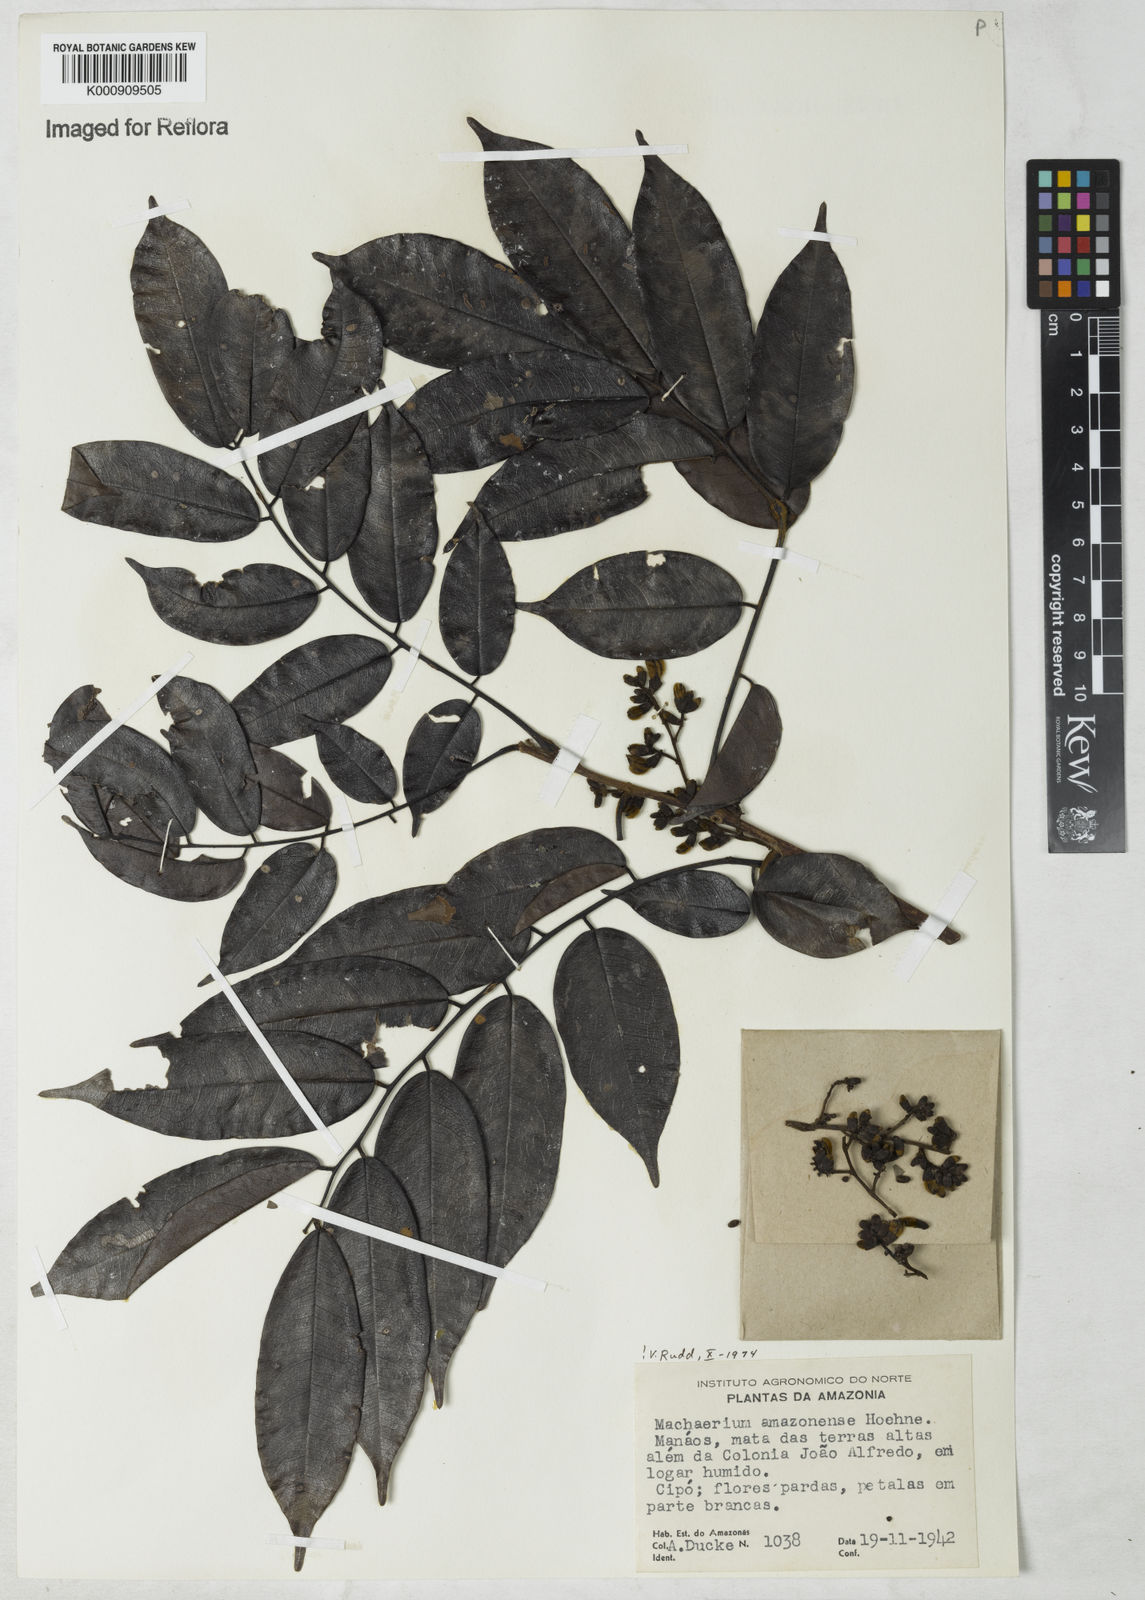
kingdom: Plantae
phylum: Tracheophyta
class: Magnoliopsida
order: Fabales
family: Fabaceae
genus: Machaerium
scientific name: Machaerium amazonense
